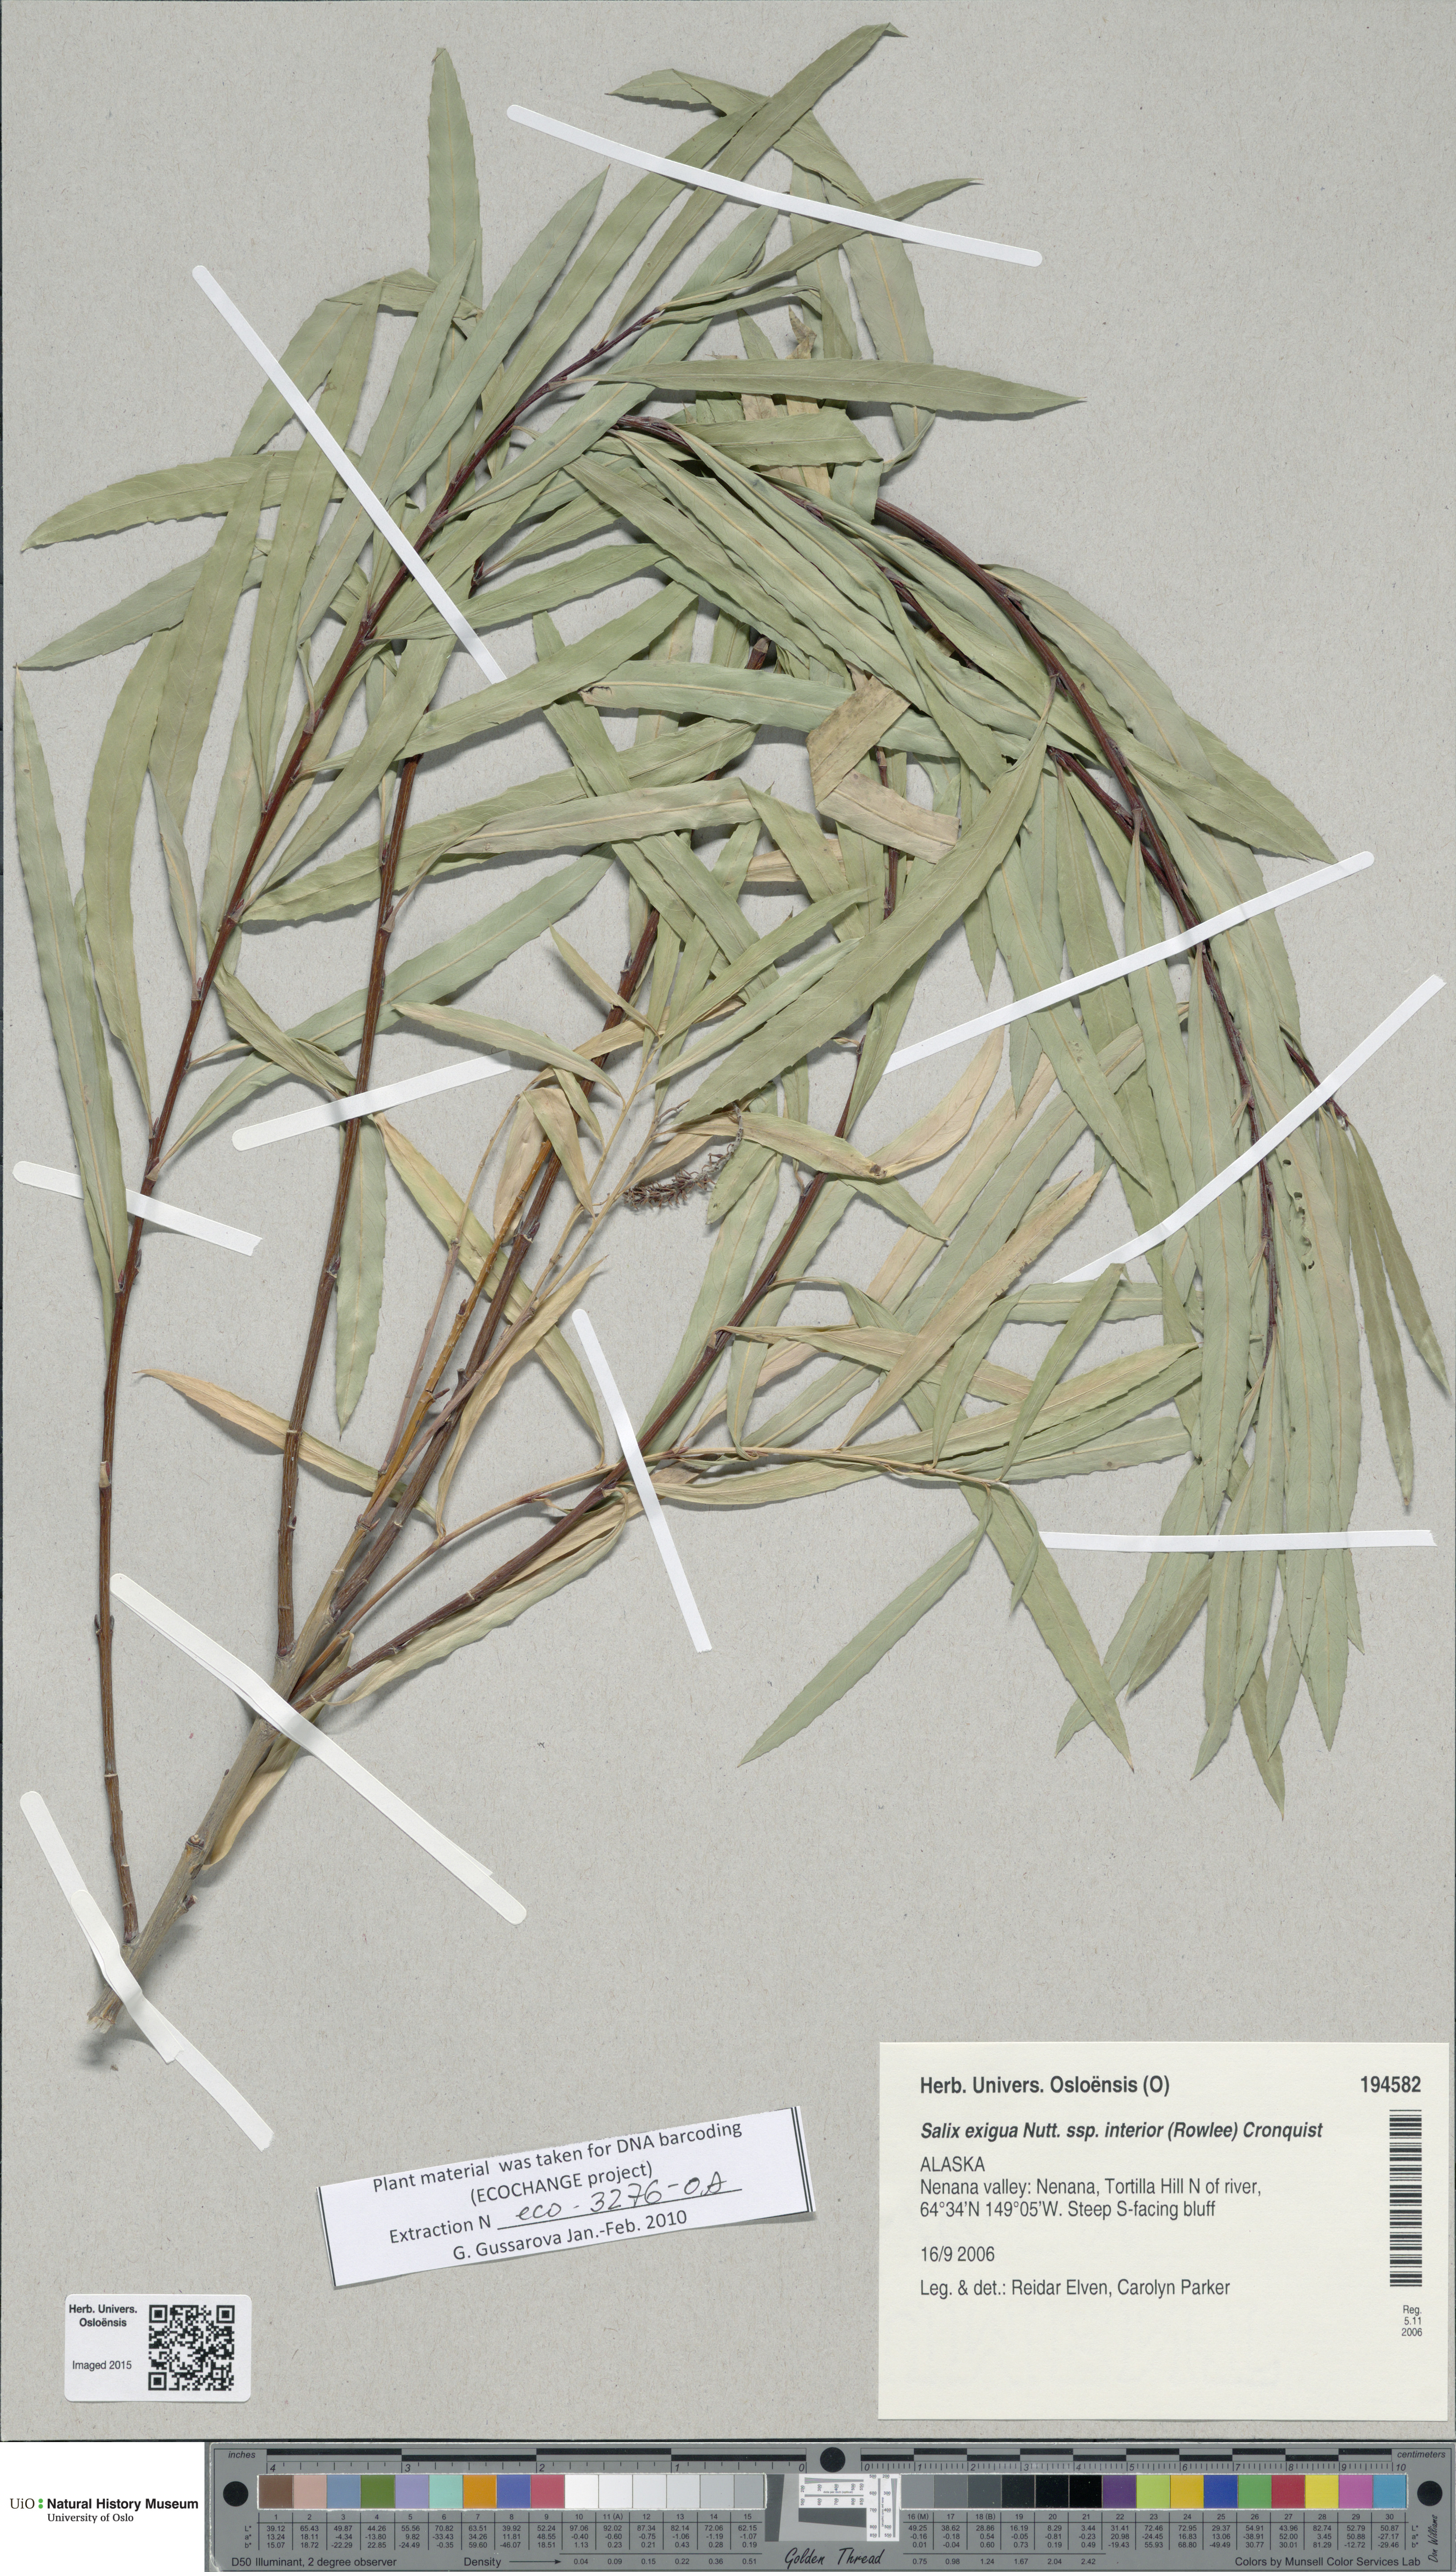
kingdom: Plantae
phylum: Tracheophyta
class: Magnoliopsida
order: Malpighiales
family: Salicaceae
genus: Salix
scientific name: Salix interior
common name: Sandbar willow
